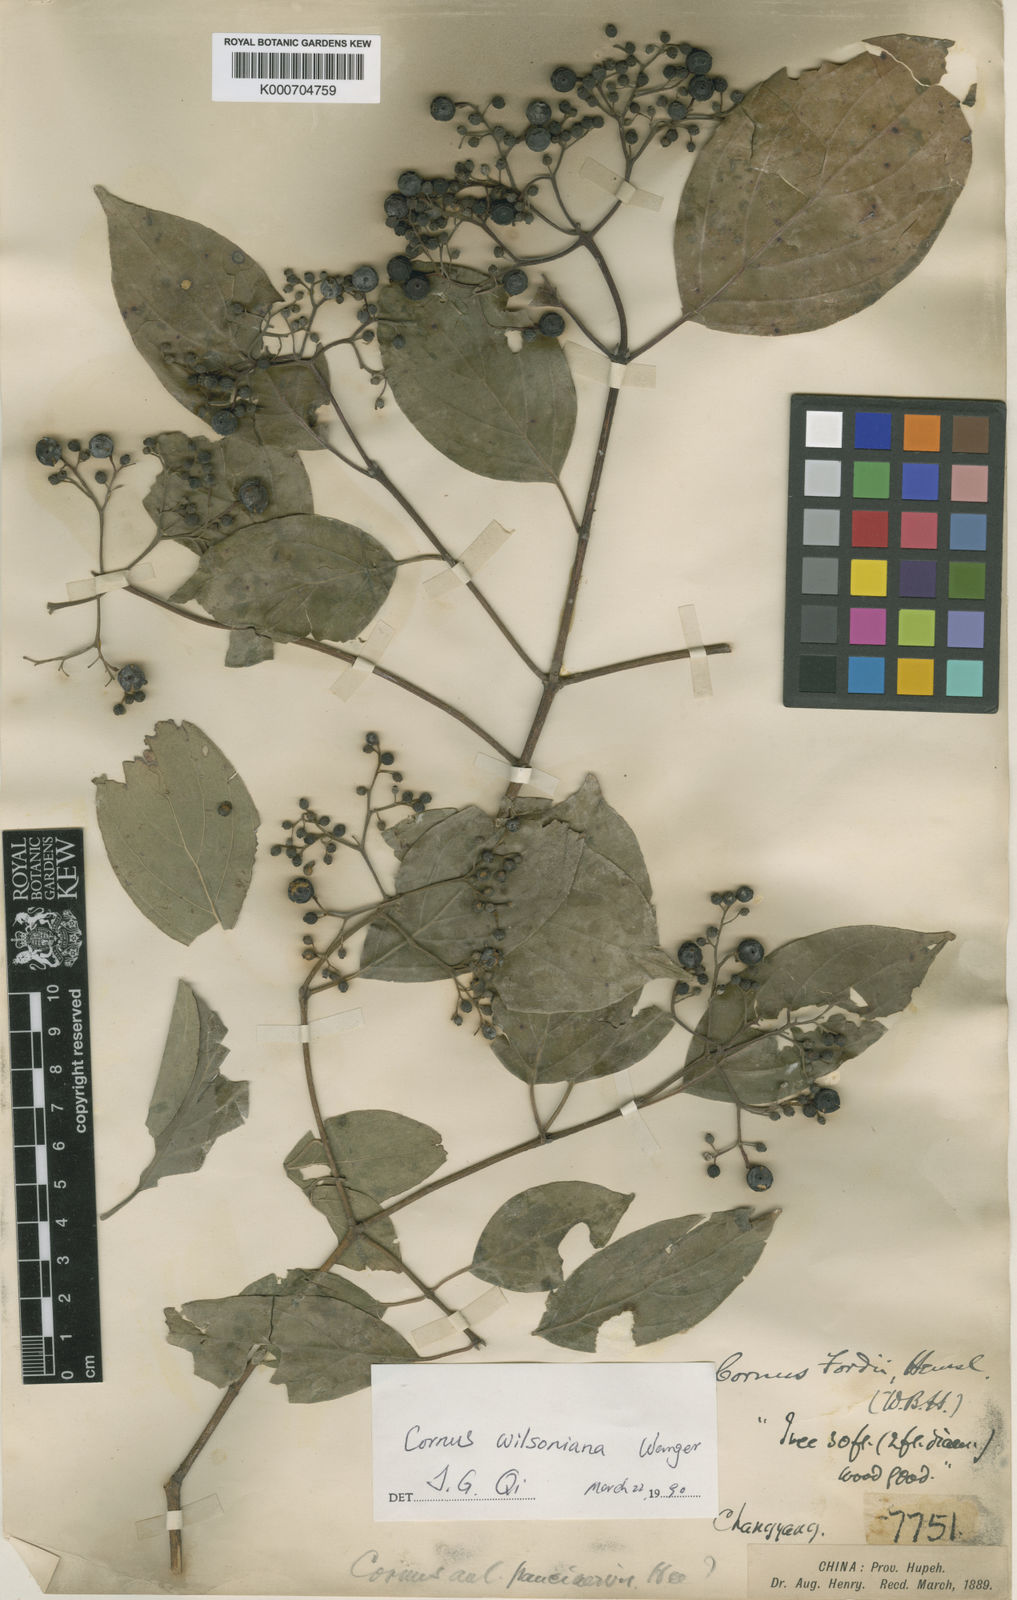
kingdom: Plantae
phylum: Tracheophyta
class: Magnoliopsida
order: Cornales
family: Cornaceae
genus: Cornus
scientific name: Cornus macrophylla
